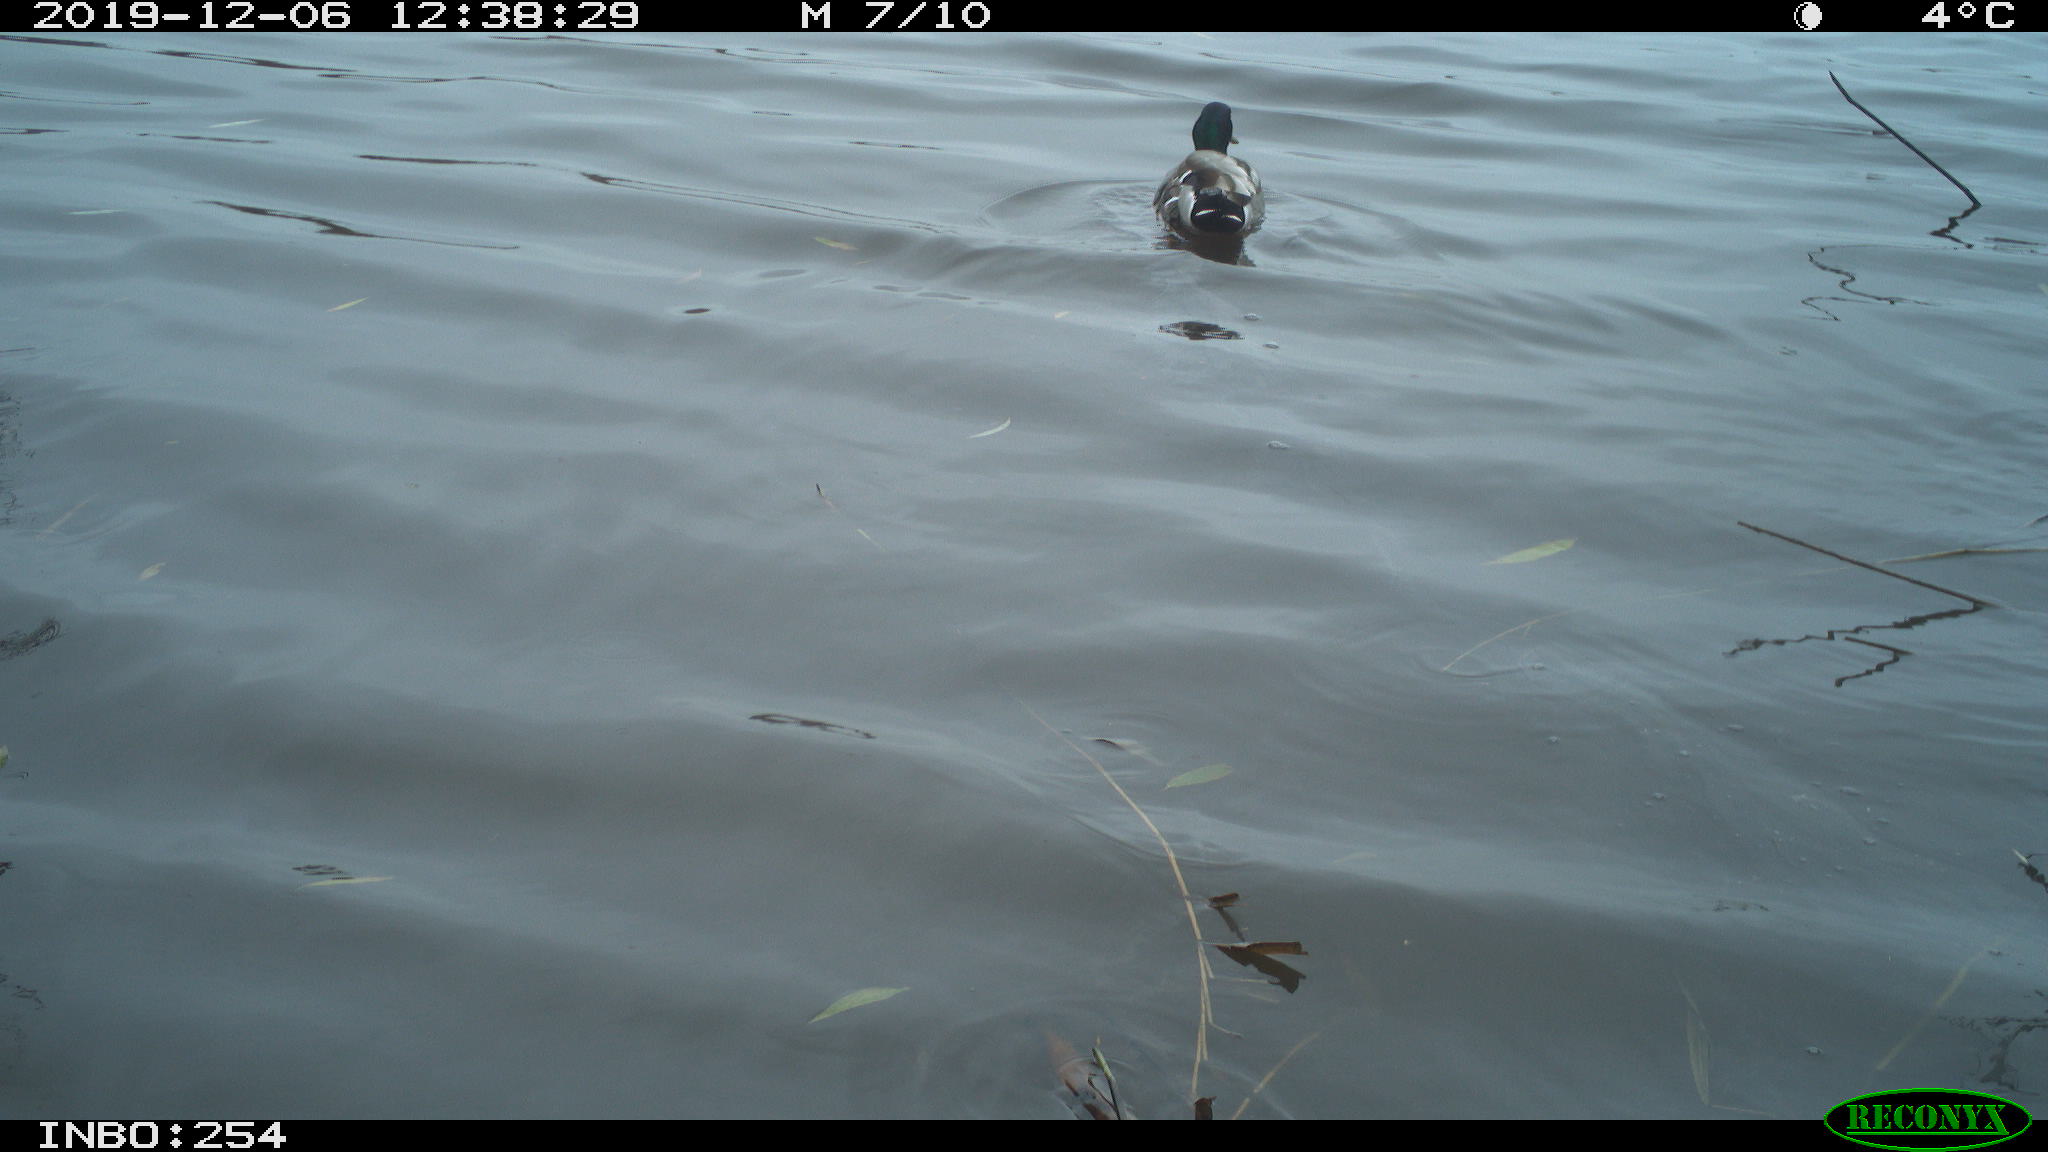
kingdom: Animalia
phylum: Chordata
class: Aves
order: Anseriformes
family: Anatidae
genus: Anas
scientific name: Anas platyrhynchos
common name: Mallard
